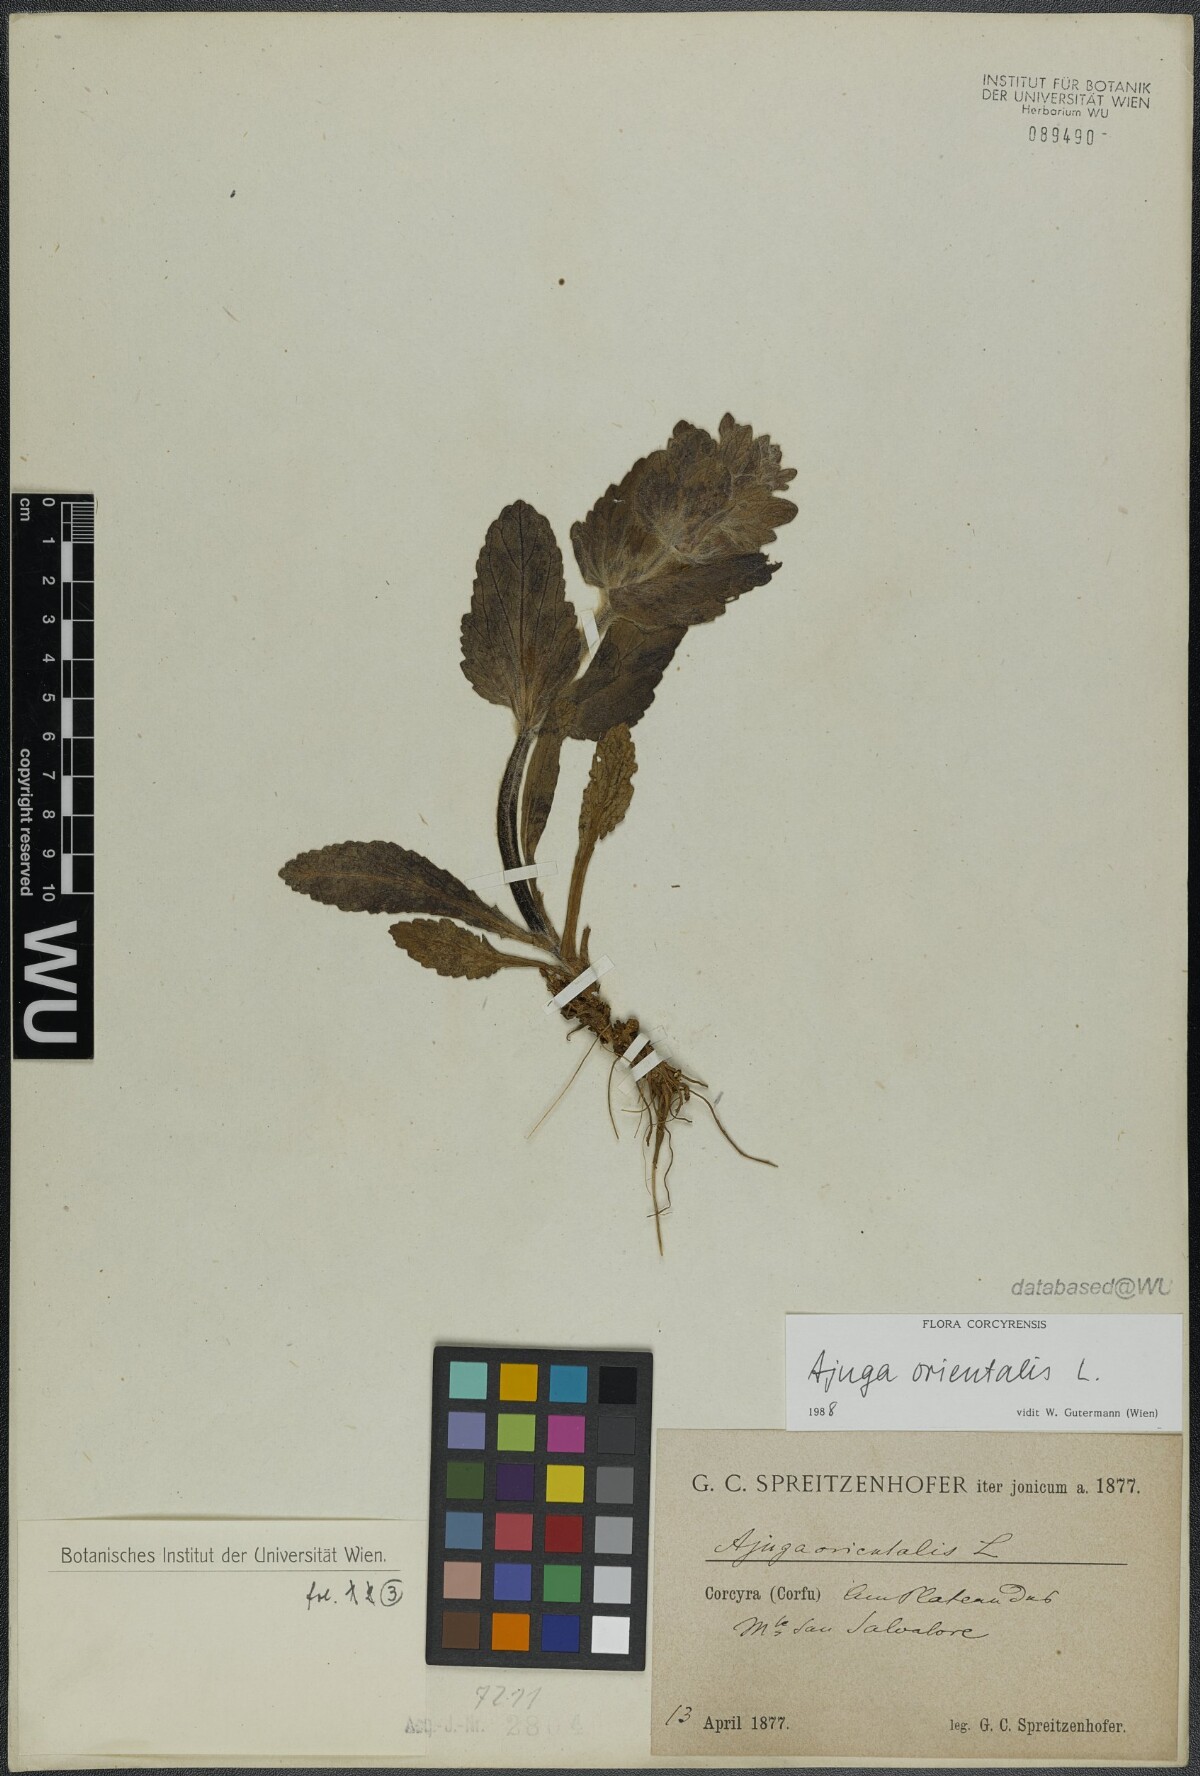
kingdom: Plantae
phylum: Tracheophyta
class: Magnoliopsida
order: Lamiales
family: Lamiaceae
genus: Ajuga
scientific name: Ajuga orientalis
